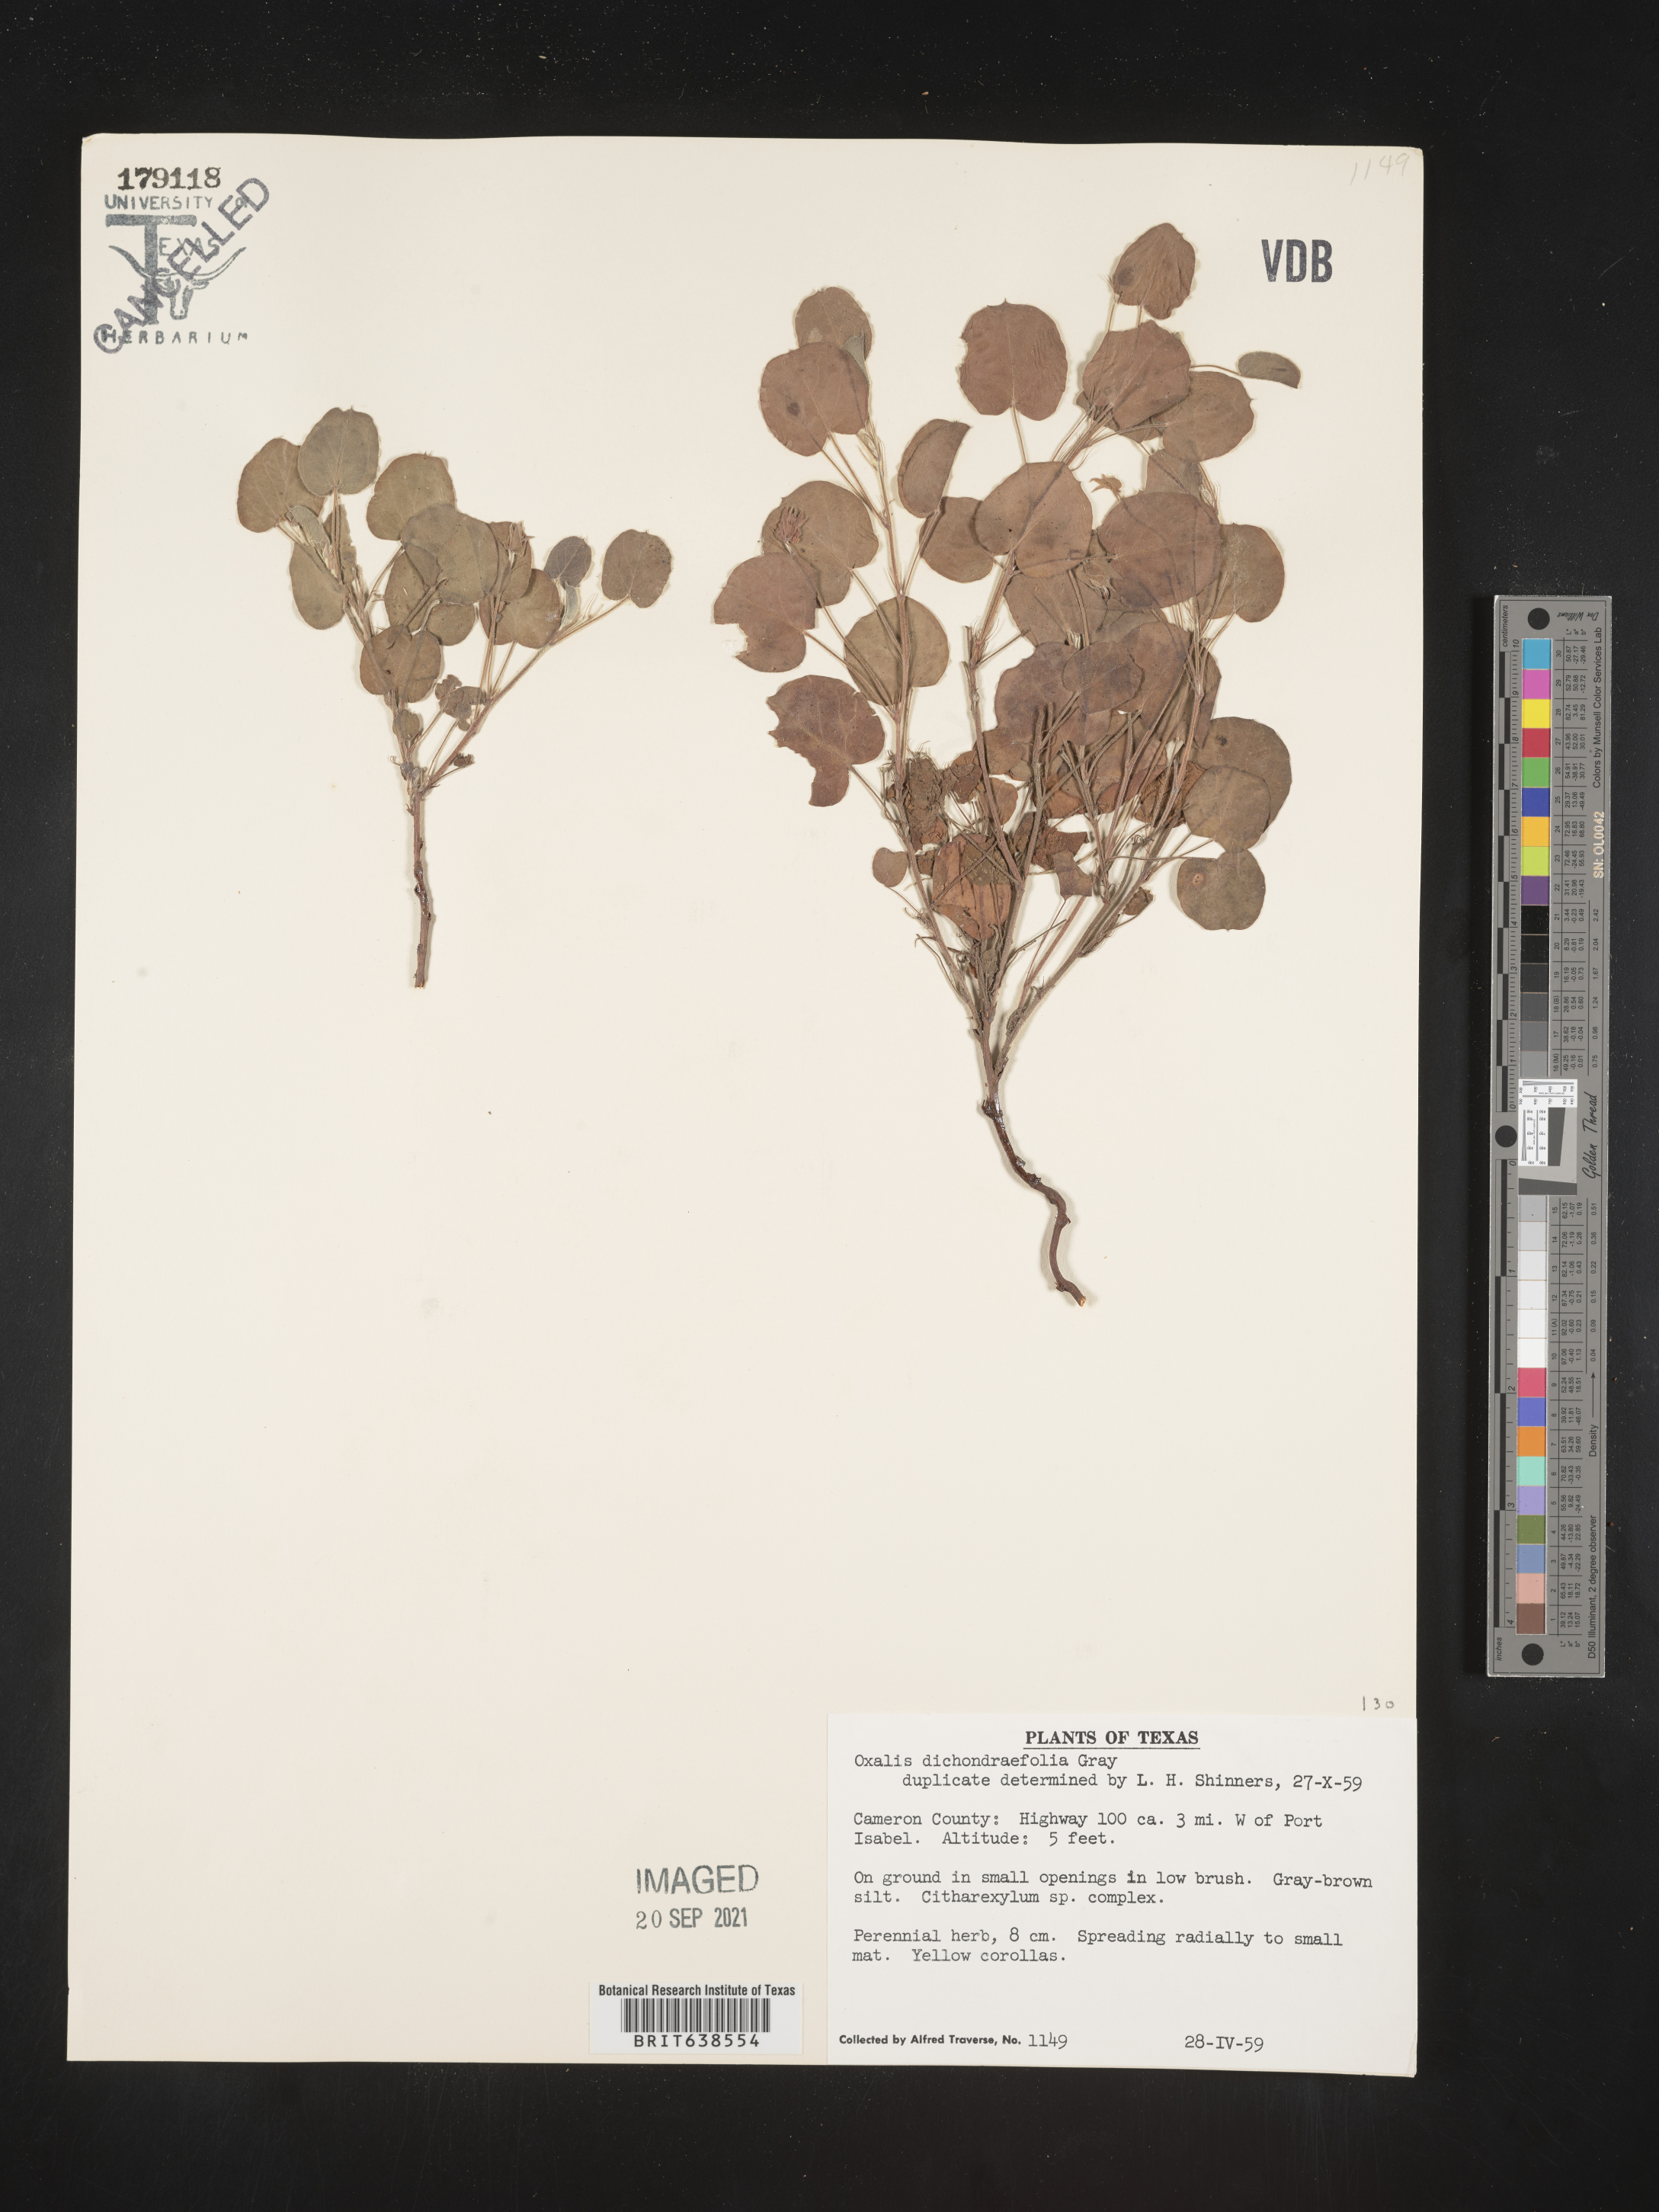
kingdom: Plantae
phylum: Tracheophyta
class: Magnoliopsida
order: Oxalidales
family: Oxalidaceae
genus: Oxalis
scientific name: Oxalis dichondrifolia
